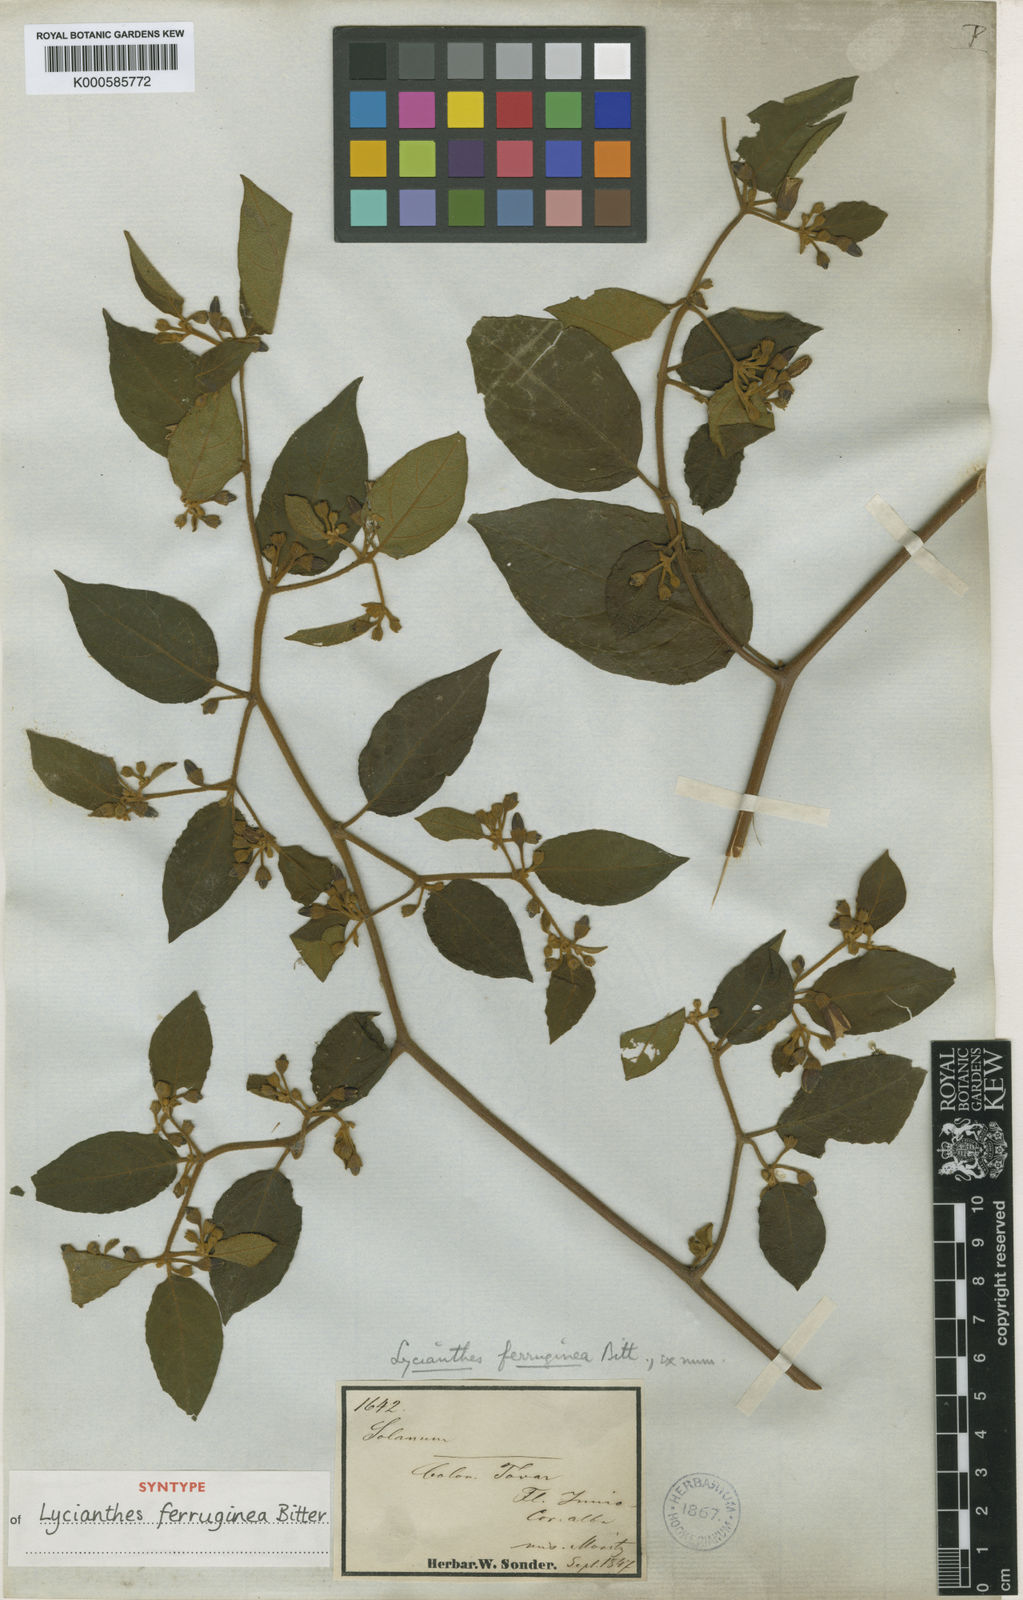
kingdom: Plantae
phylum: Tracheophyta
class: Magnoliopsida
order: Solanales
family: Solanaceae
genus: Lycianthes
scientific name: Lycianthes ferruginea
